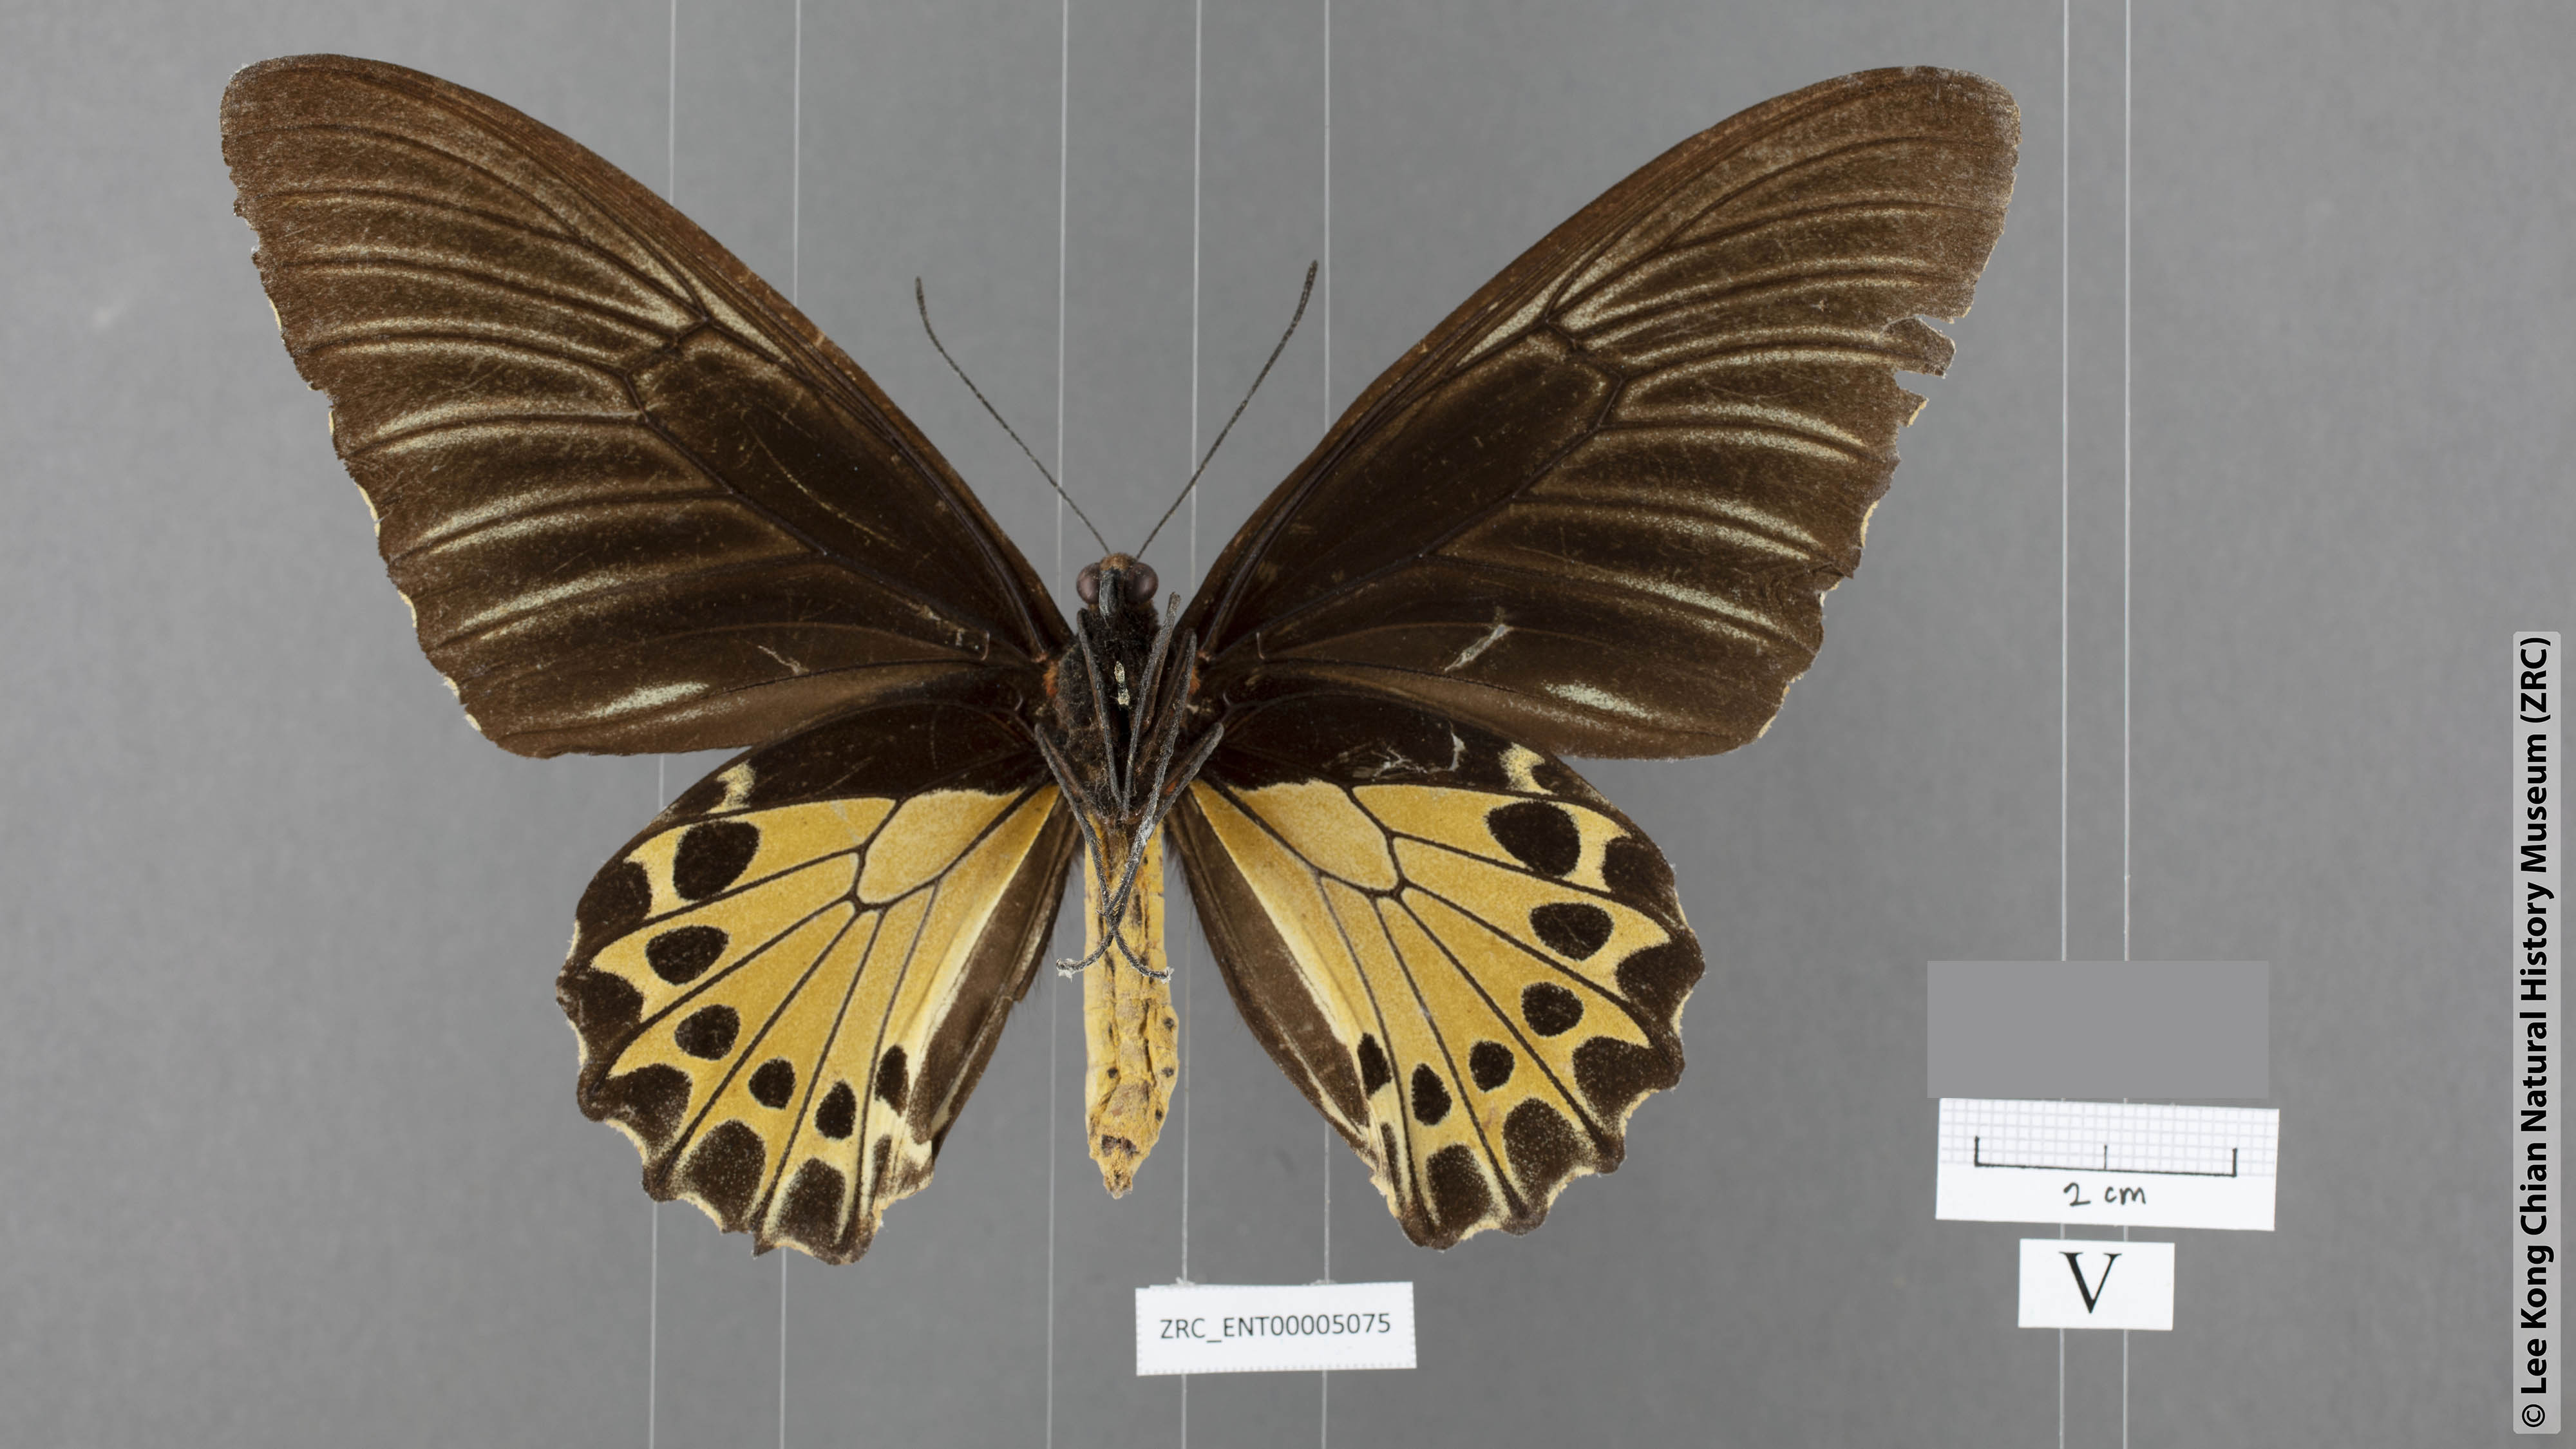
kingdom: Animalia
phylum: Arthropoda
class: Insecta
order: Lepidoptera
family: Papilionidae
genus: Troides
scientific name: Troides helena
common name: Common birdwing
